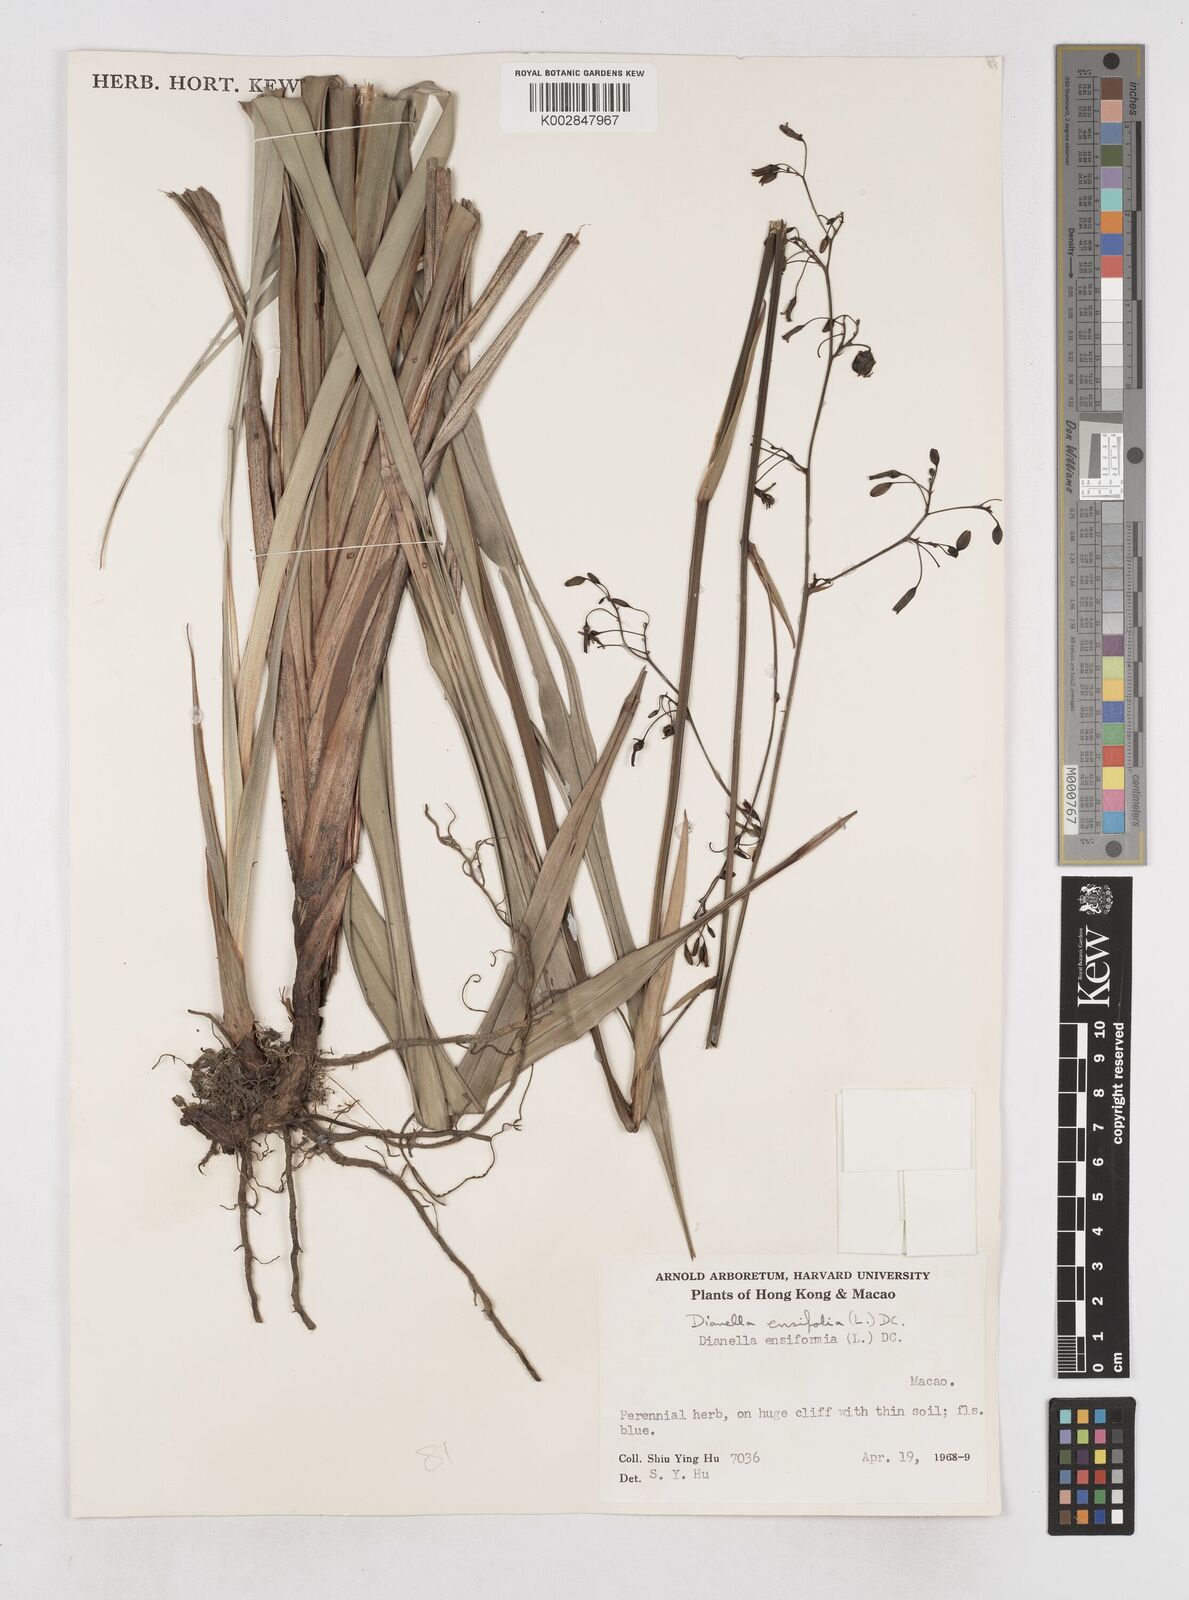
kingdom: Plantae
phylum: Tracheophyta
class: Liliopsida
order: Asparagales
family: Asphodelaceae
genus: Dianella
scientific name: Dianella ensifolia
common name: New zealand lilyplant
